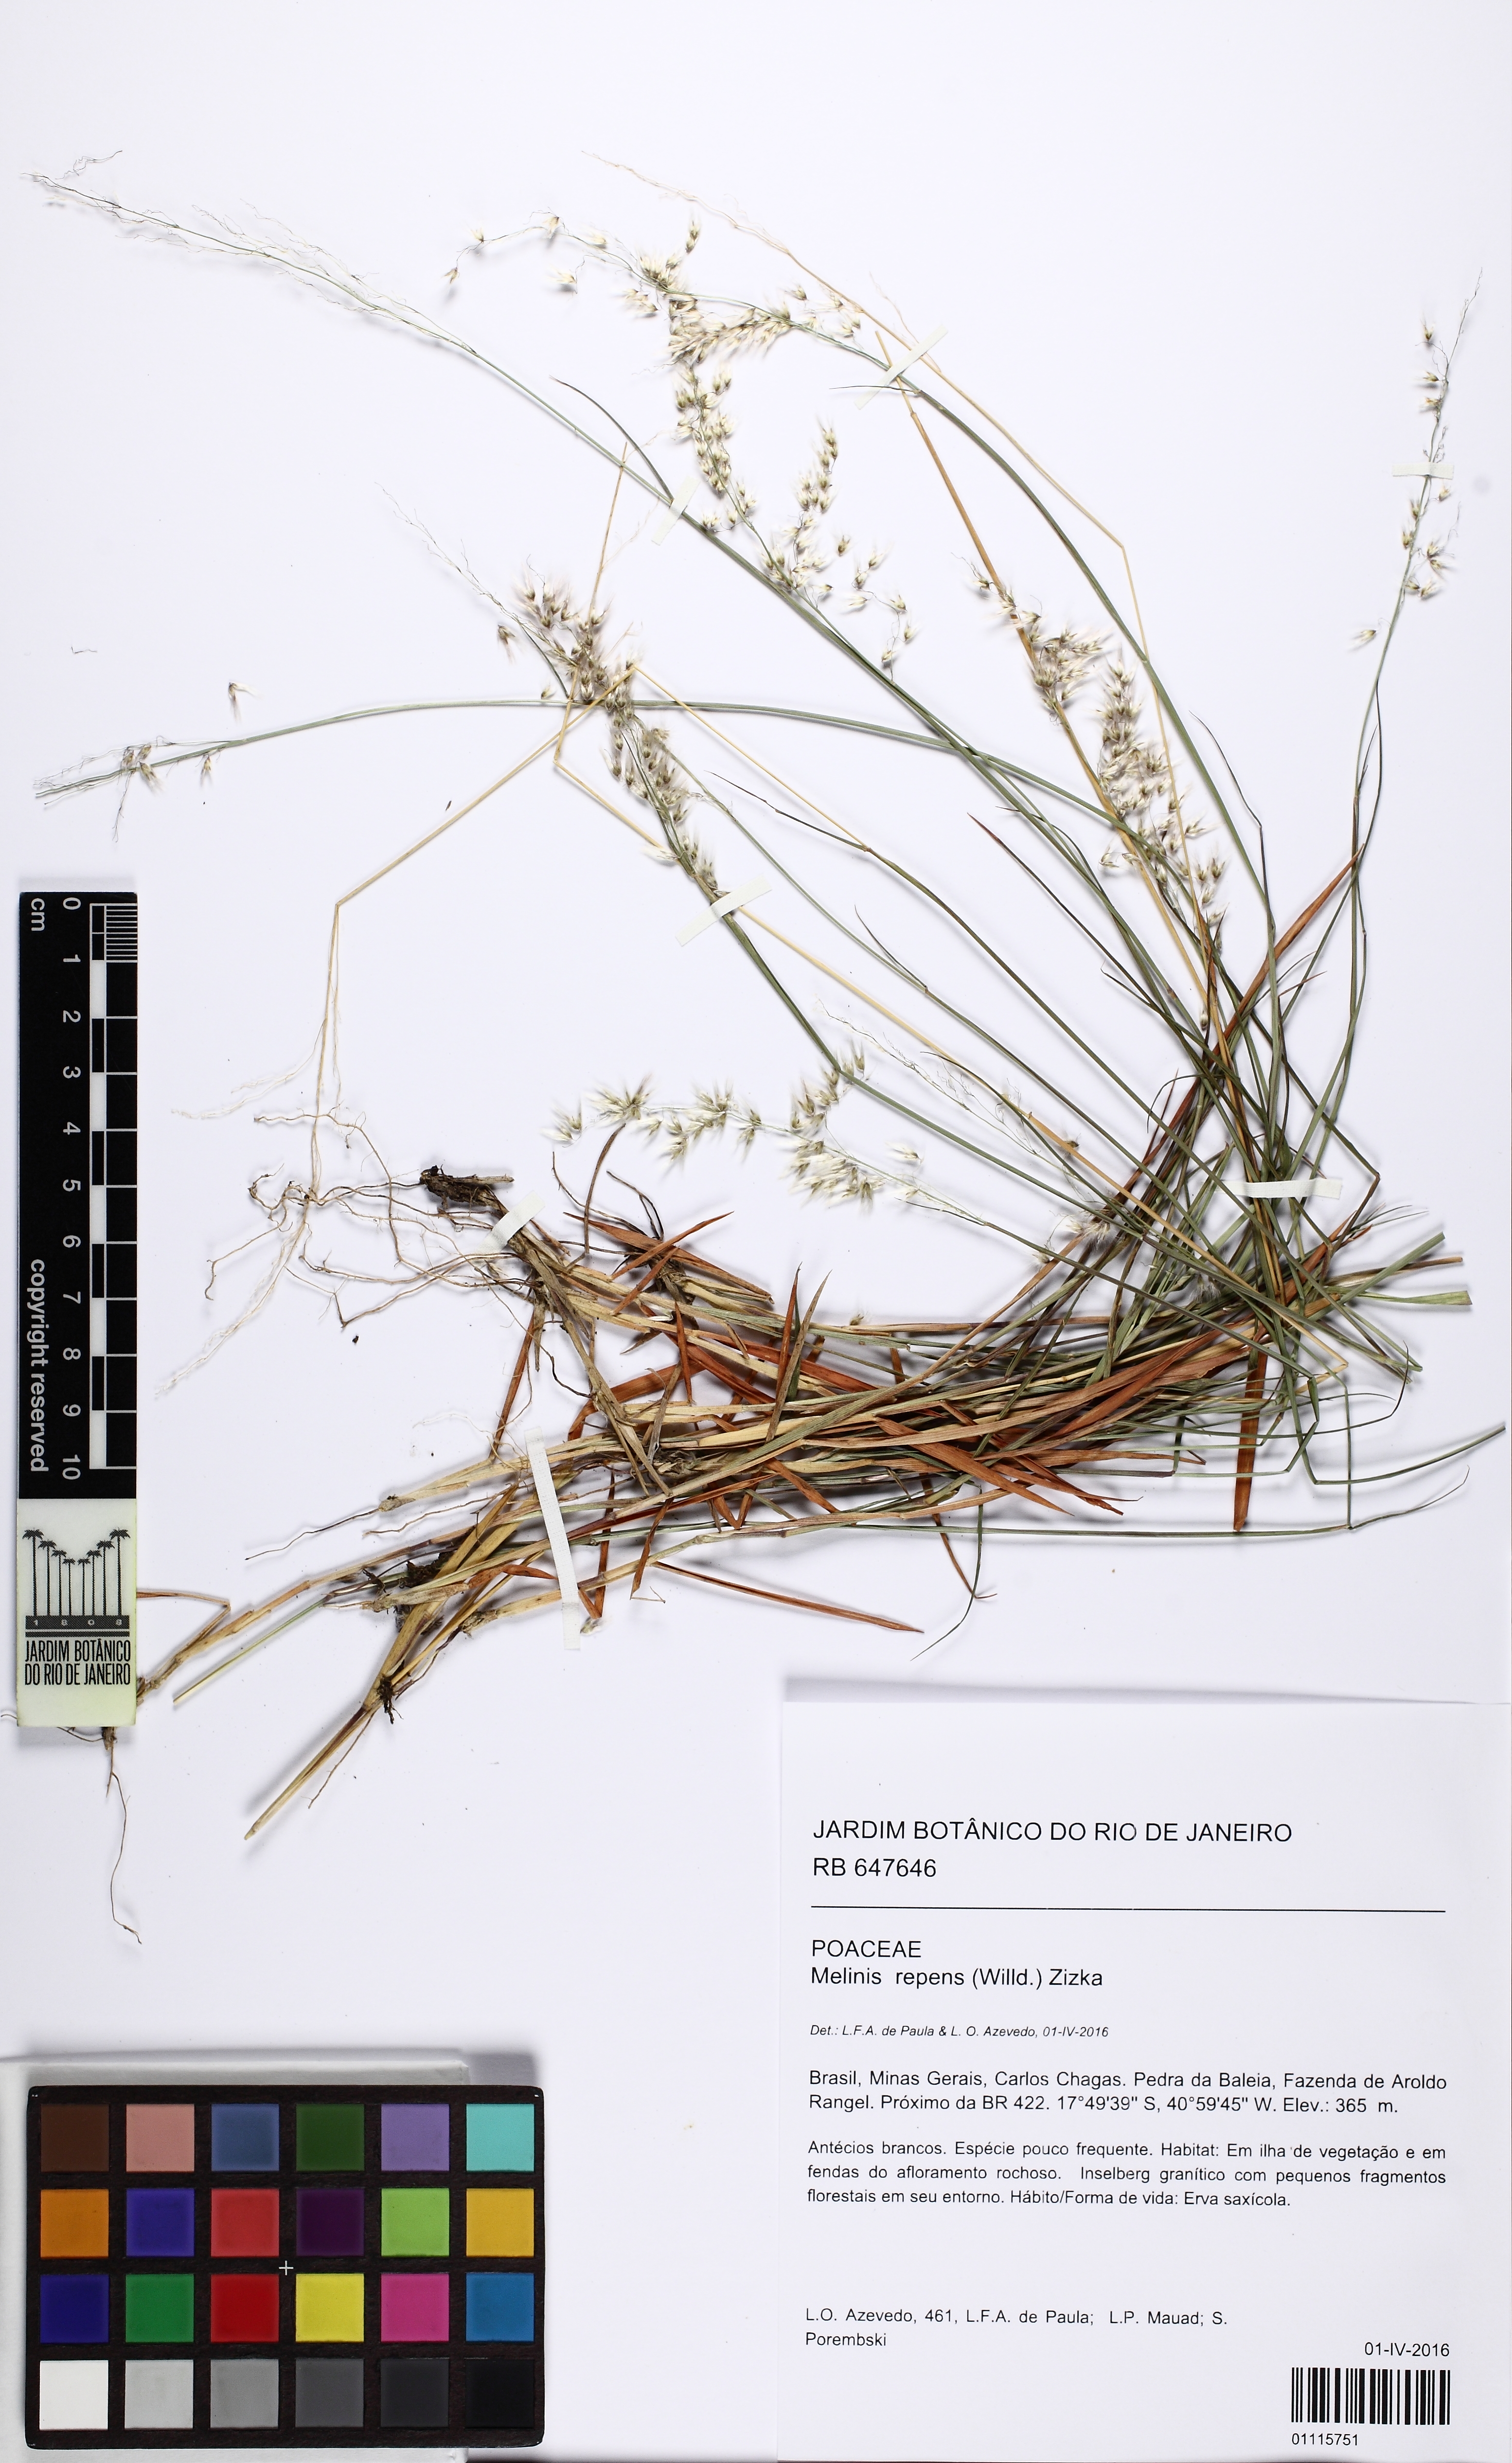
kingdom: Plantae
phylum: Tracheophyta
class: Liliopsida
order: Poales
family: Poaceae
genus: Melinis
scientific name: Melinis repens
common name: Rose natal grass
